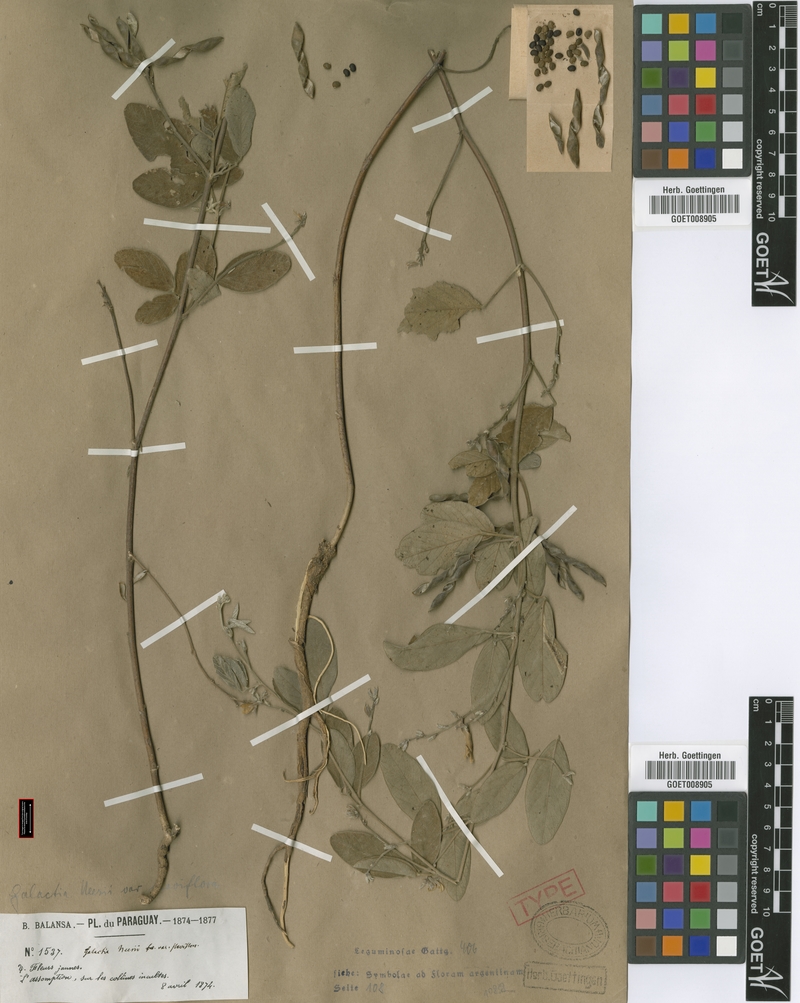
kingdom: Plantae
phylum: Tracheophyta
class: Magnoliopsida
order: Fabales
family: Fabaceae
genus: Galactia
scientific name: Galactia latisiliqua
